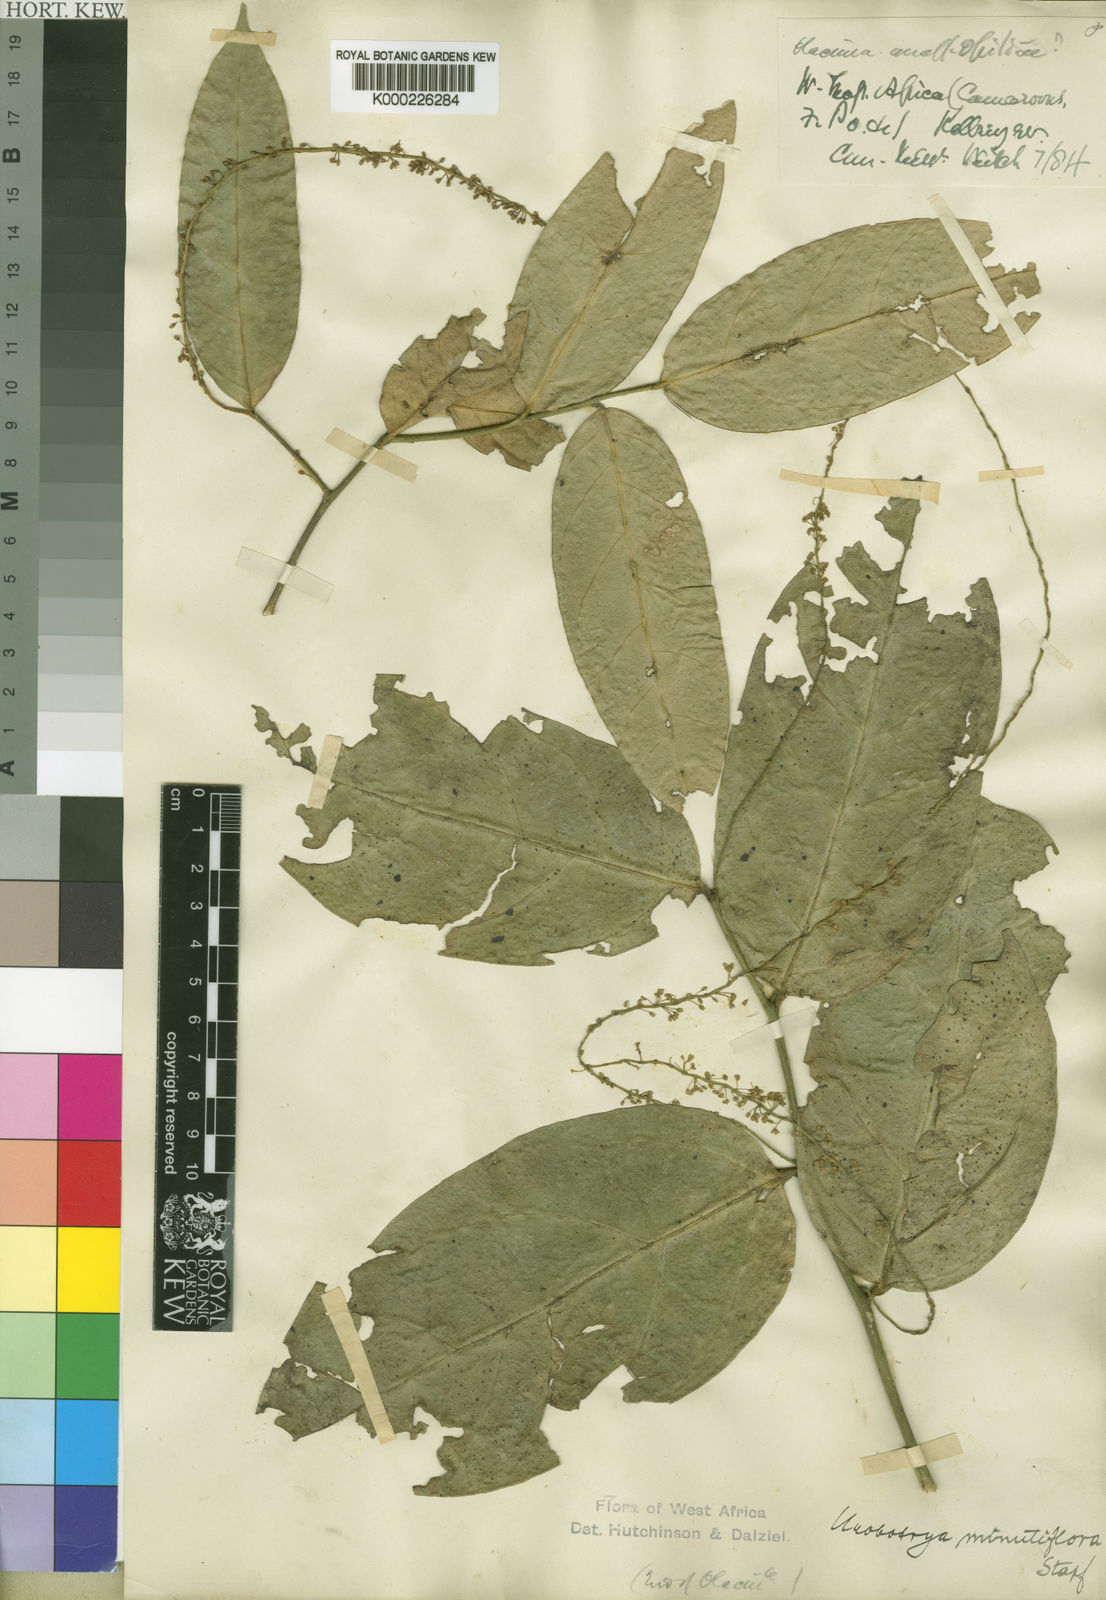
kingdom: Plantae
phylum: Tracheophyta
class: Magnoliopsida
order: Santalales
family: Opiliaceae
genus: Urobotrya
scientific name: Urobotrya congolana
